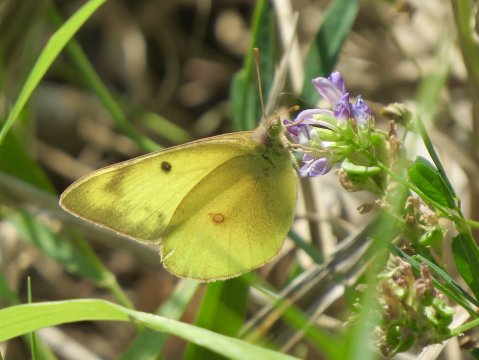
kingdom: Animalia
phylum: Arthropoda
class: Insecta
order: Lepidoptera
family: Pieridae
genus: Colias
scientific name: Colias philodice
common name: Clouded Sulphur
